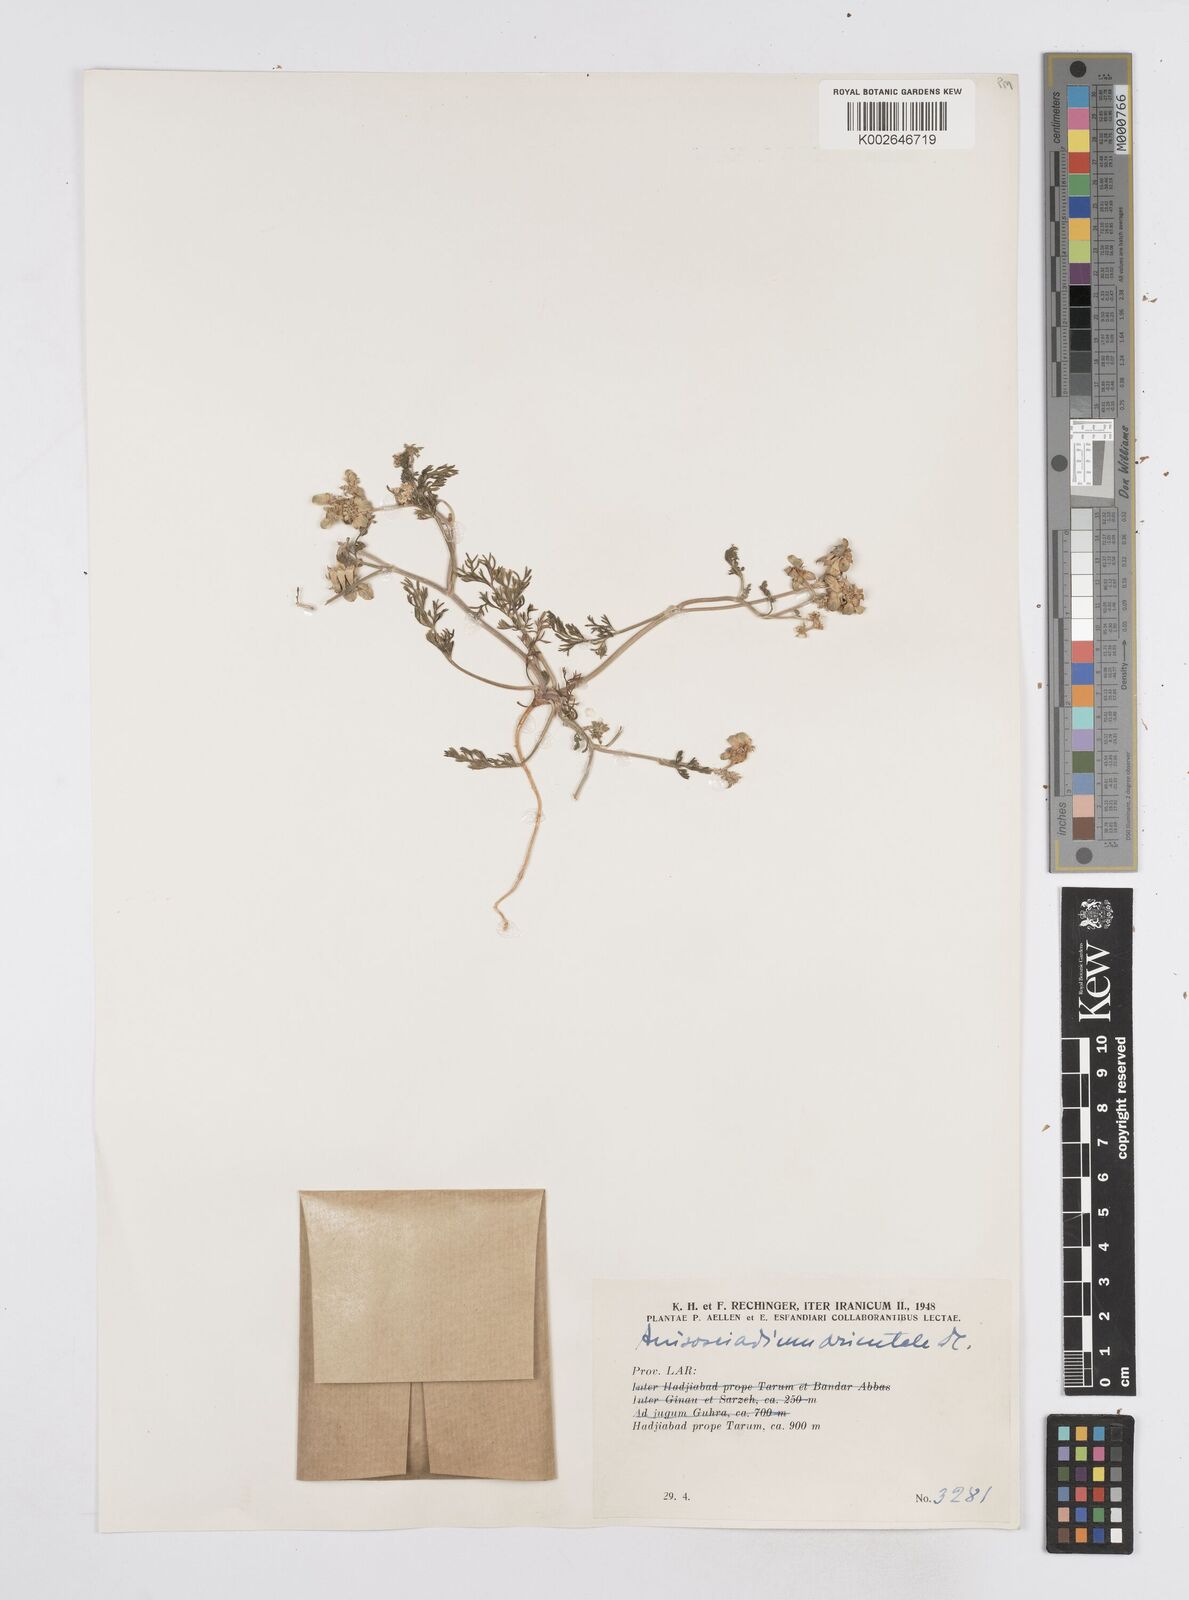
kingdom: Plantae
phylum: Tracheophyta
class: Magnoliopsida
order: Apiales
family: Apiaceae
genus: Anisosciadium
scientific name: Anisosciadium orientale
